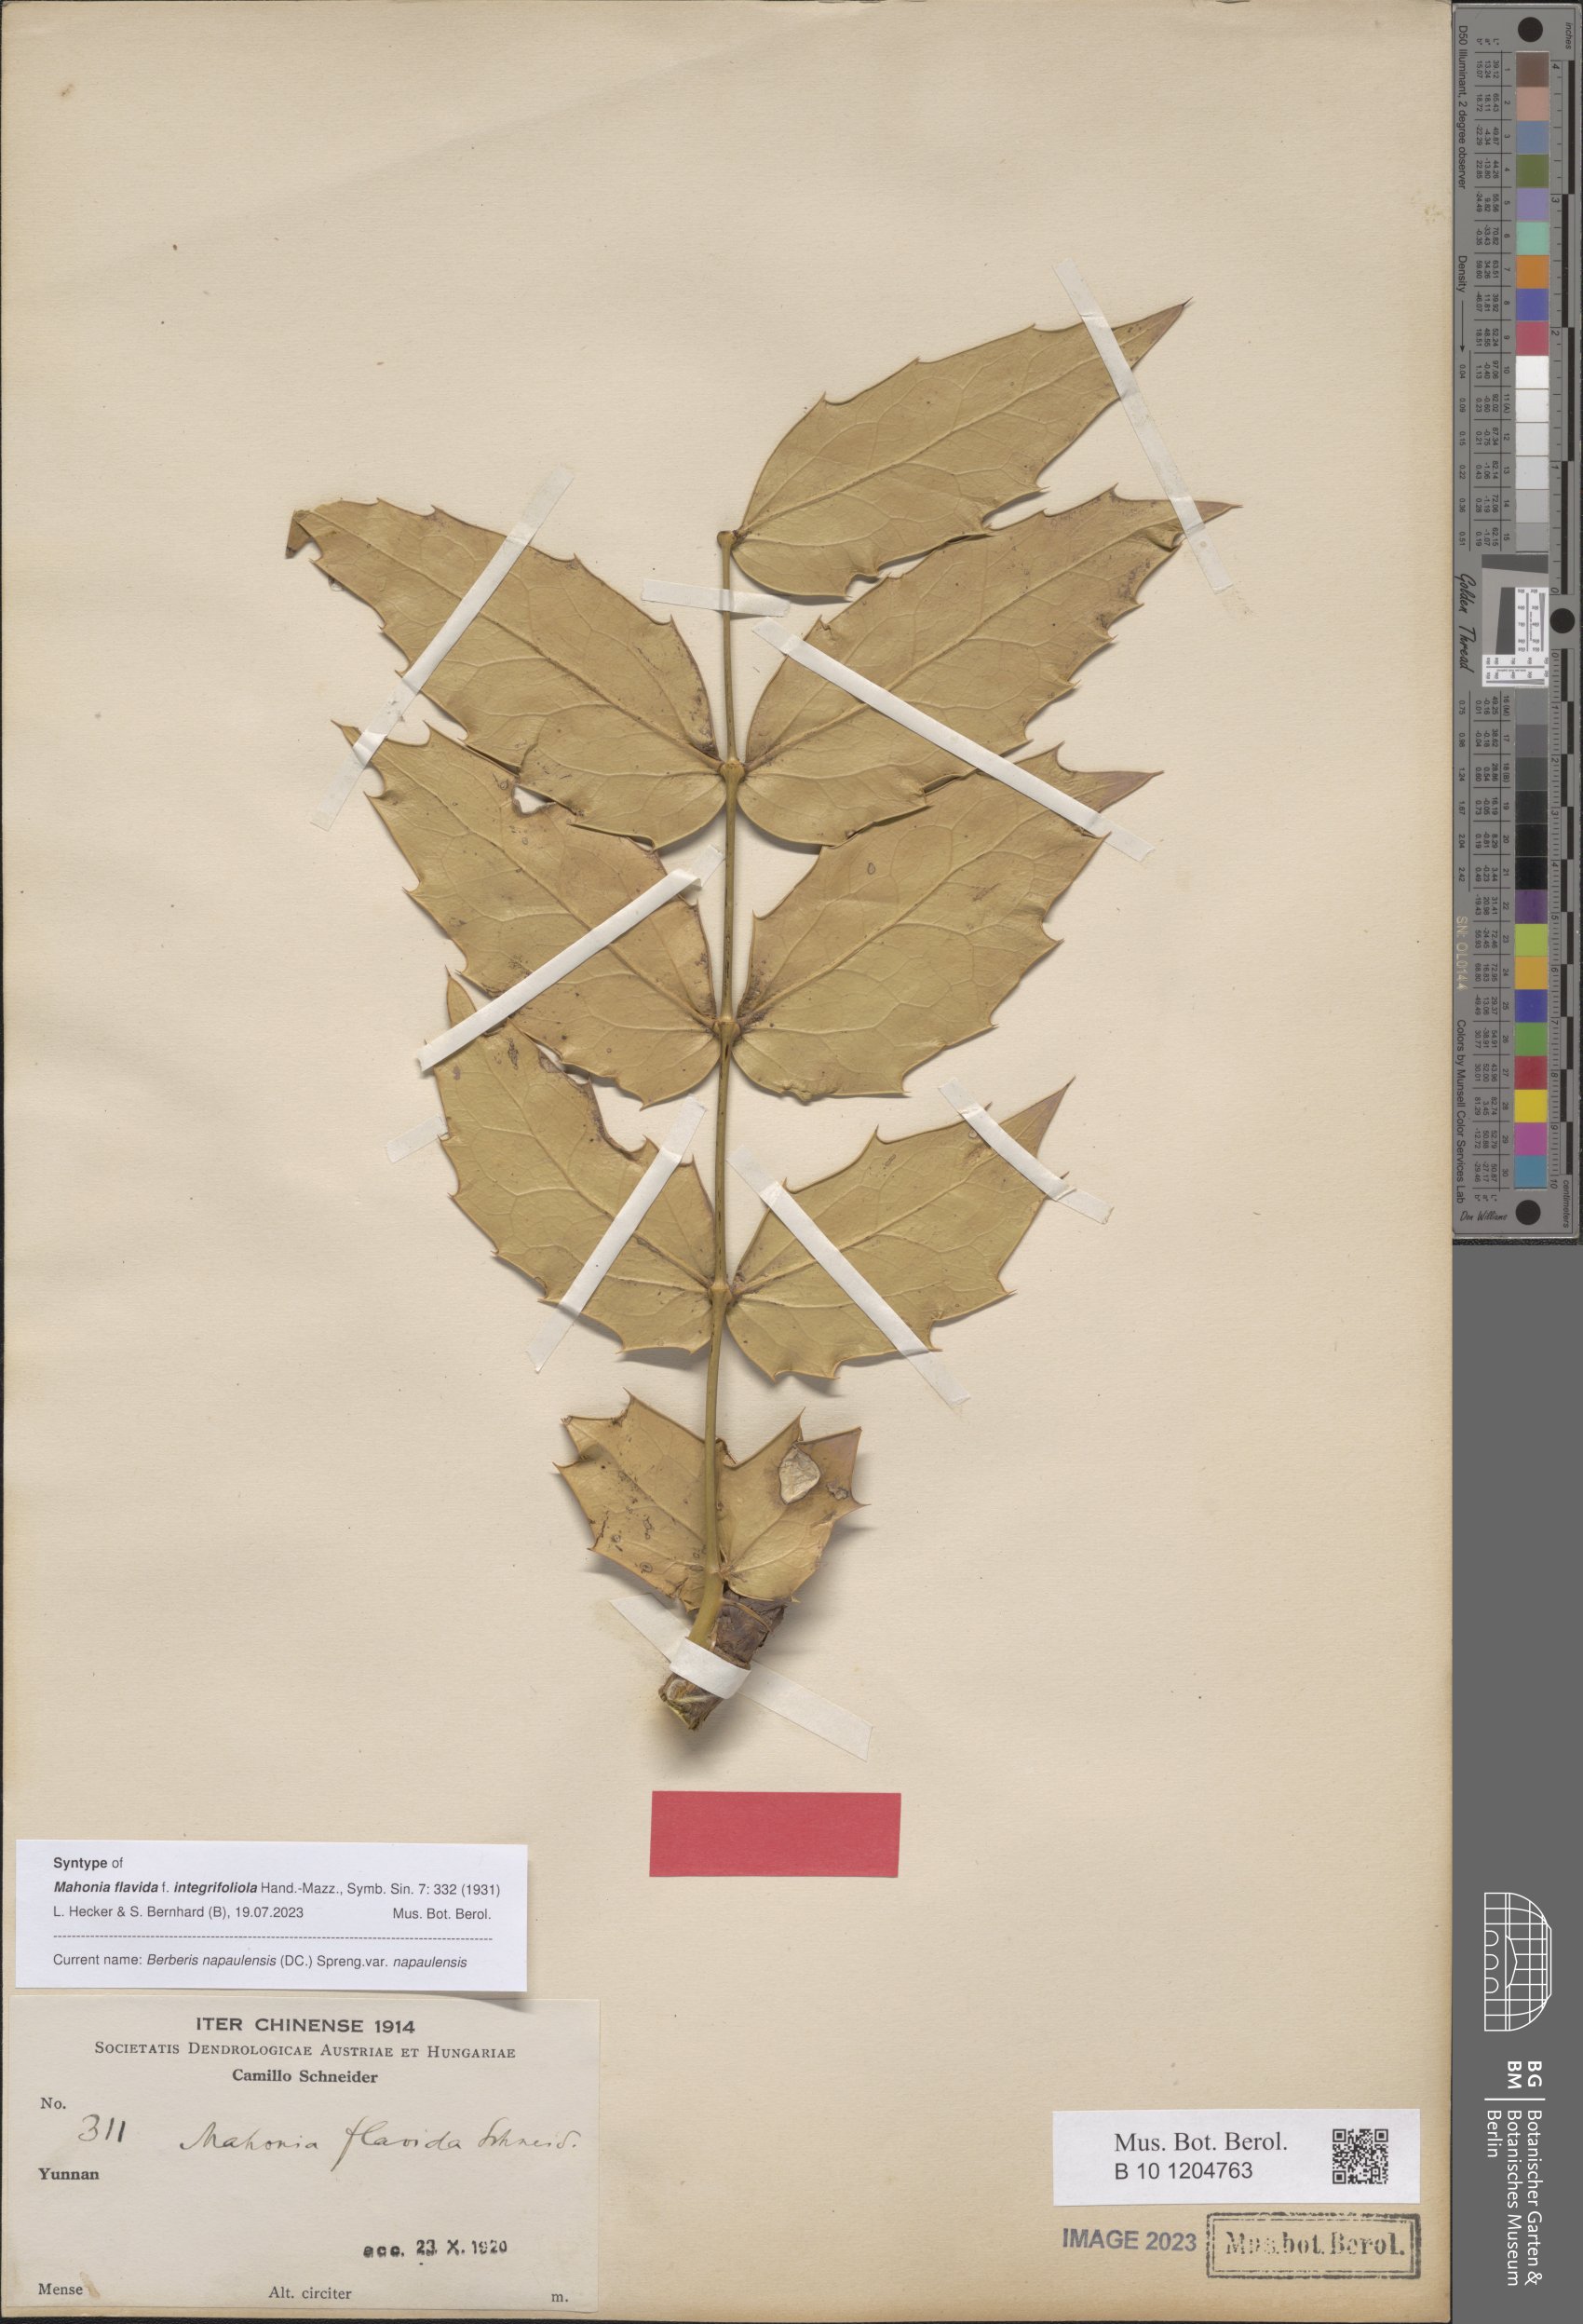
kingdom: Plantae
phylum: Tracheophyta
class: Magnoliopsida
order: Ranunculales
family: Berberidaceae
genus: Mahonia
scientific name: Mahonia napaulensis
